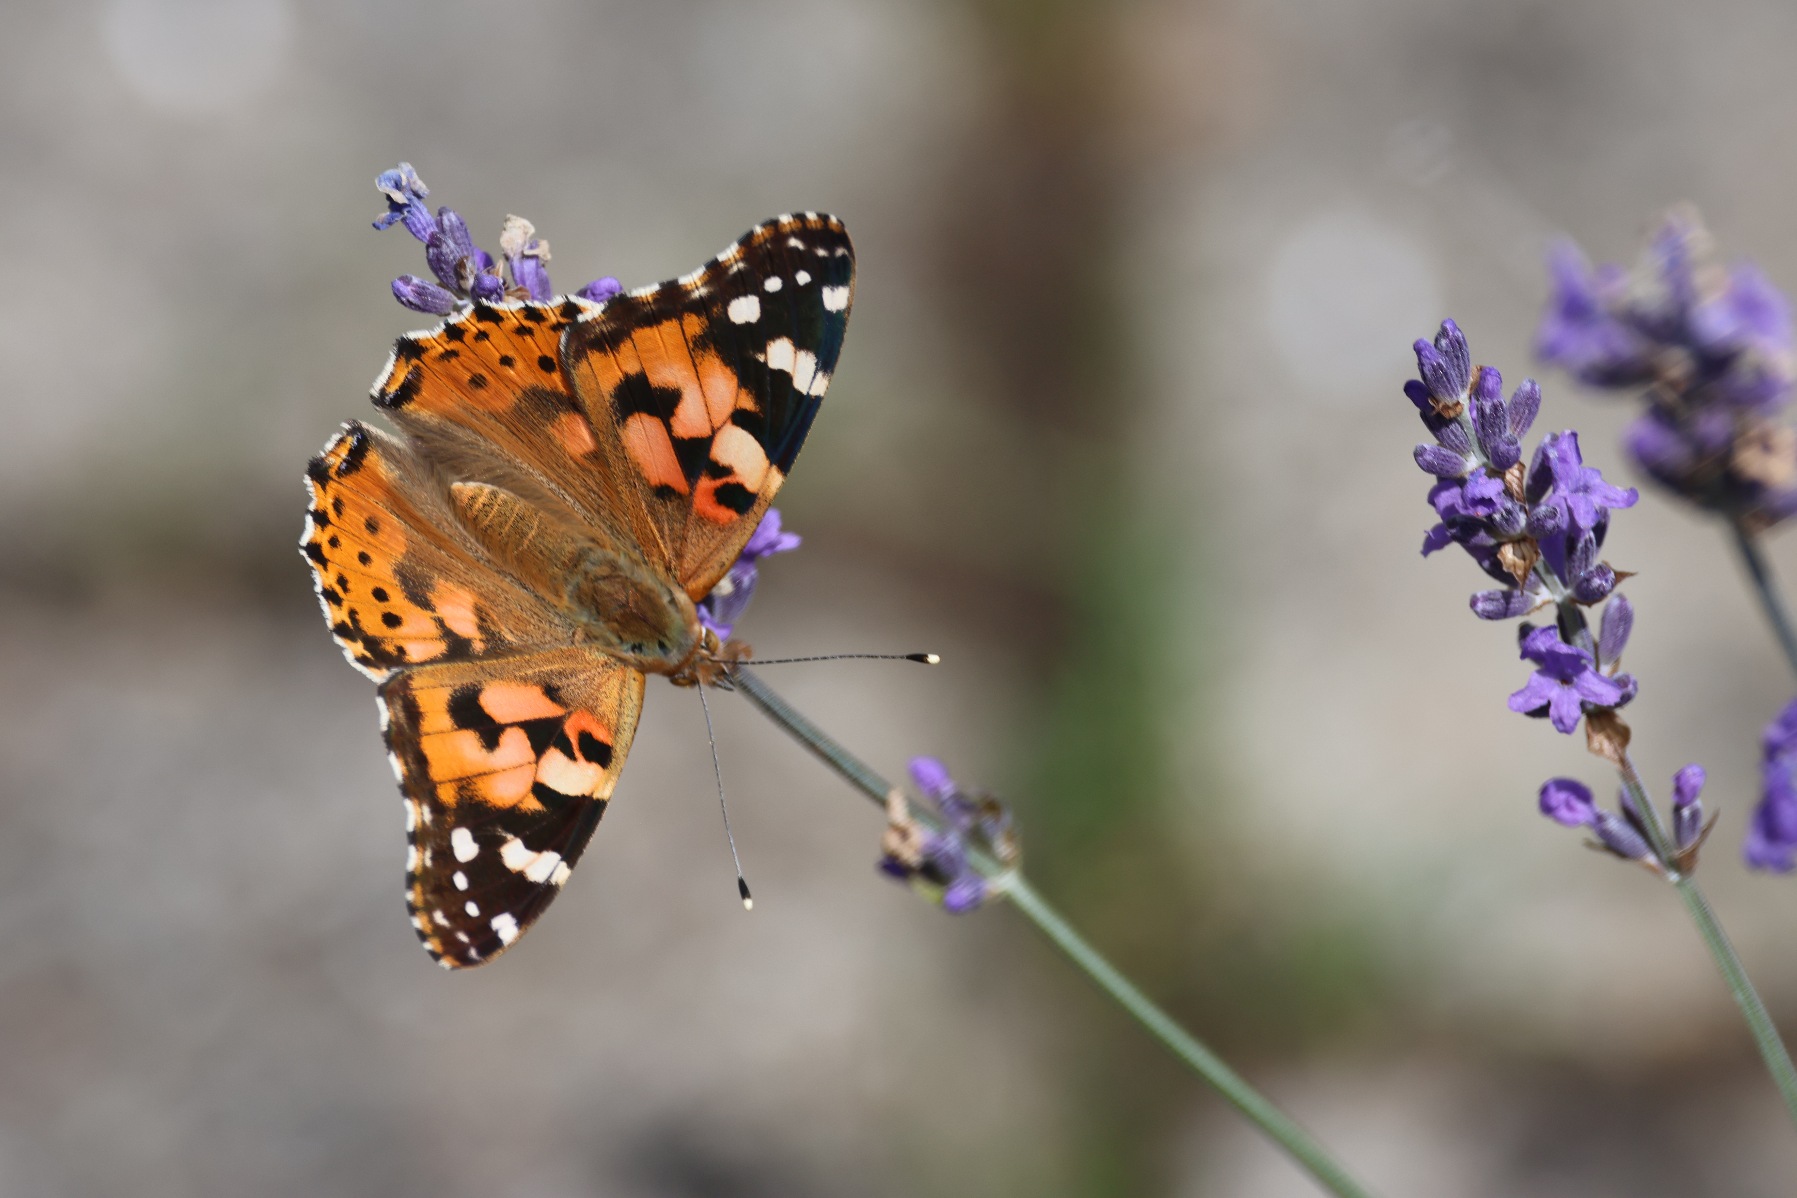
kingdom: Animalia
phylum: Arthropoda
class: Insecta
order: Lepidoptera
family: Nymphalidae
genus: Vanessa
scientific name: Vanessa cardui
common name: Tidselsommerfugl
